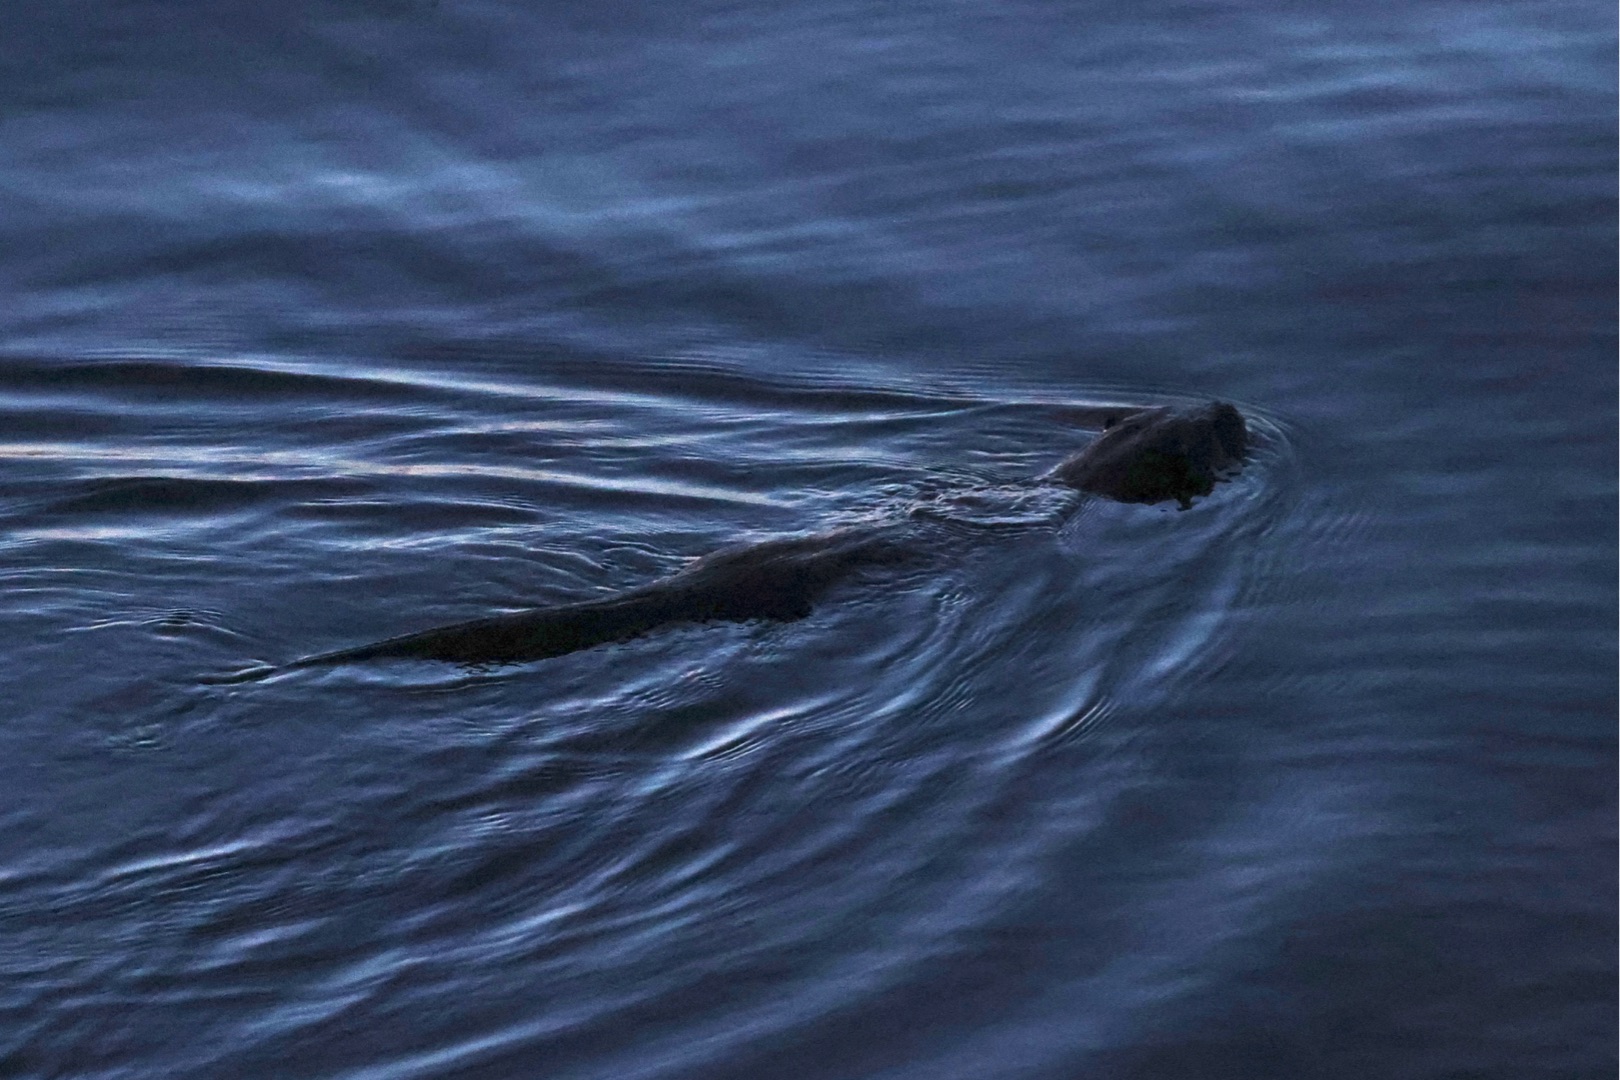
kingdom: Animalia
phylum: Chordata
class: Mammalia
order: Carnivora
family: Mustelidae
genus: Lutra
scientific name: Lutra lutra
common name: Odder
